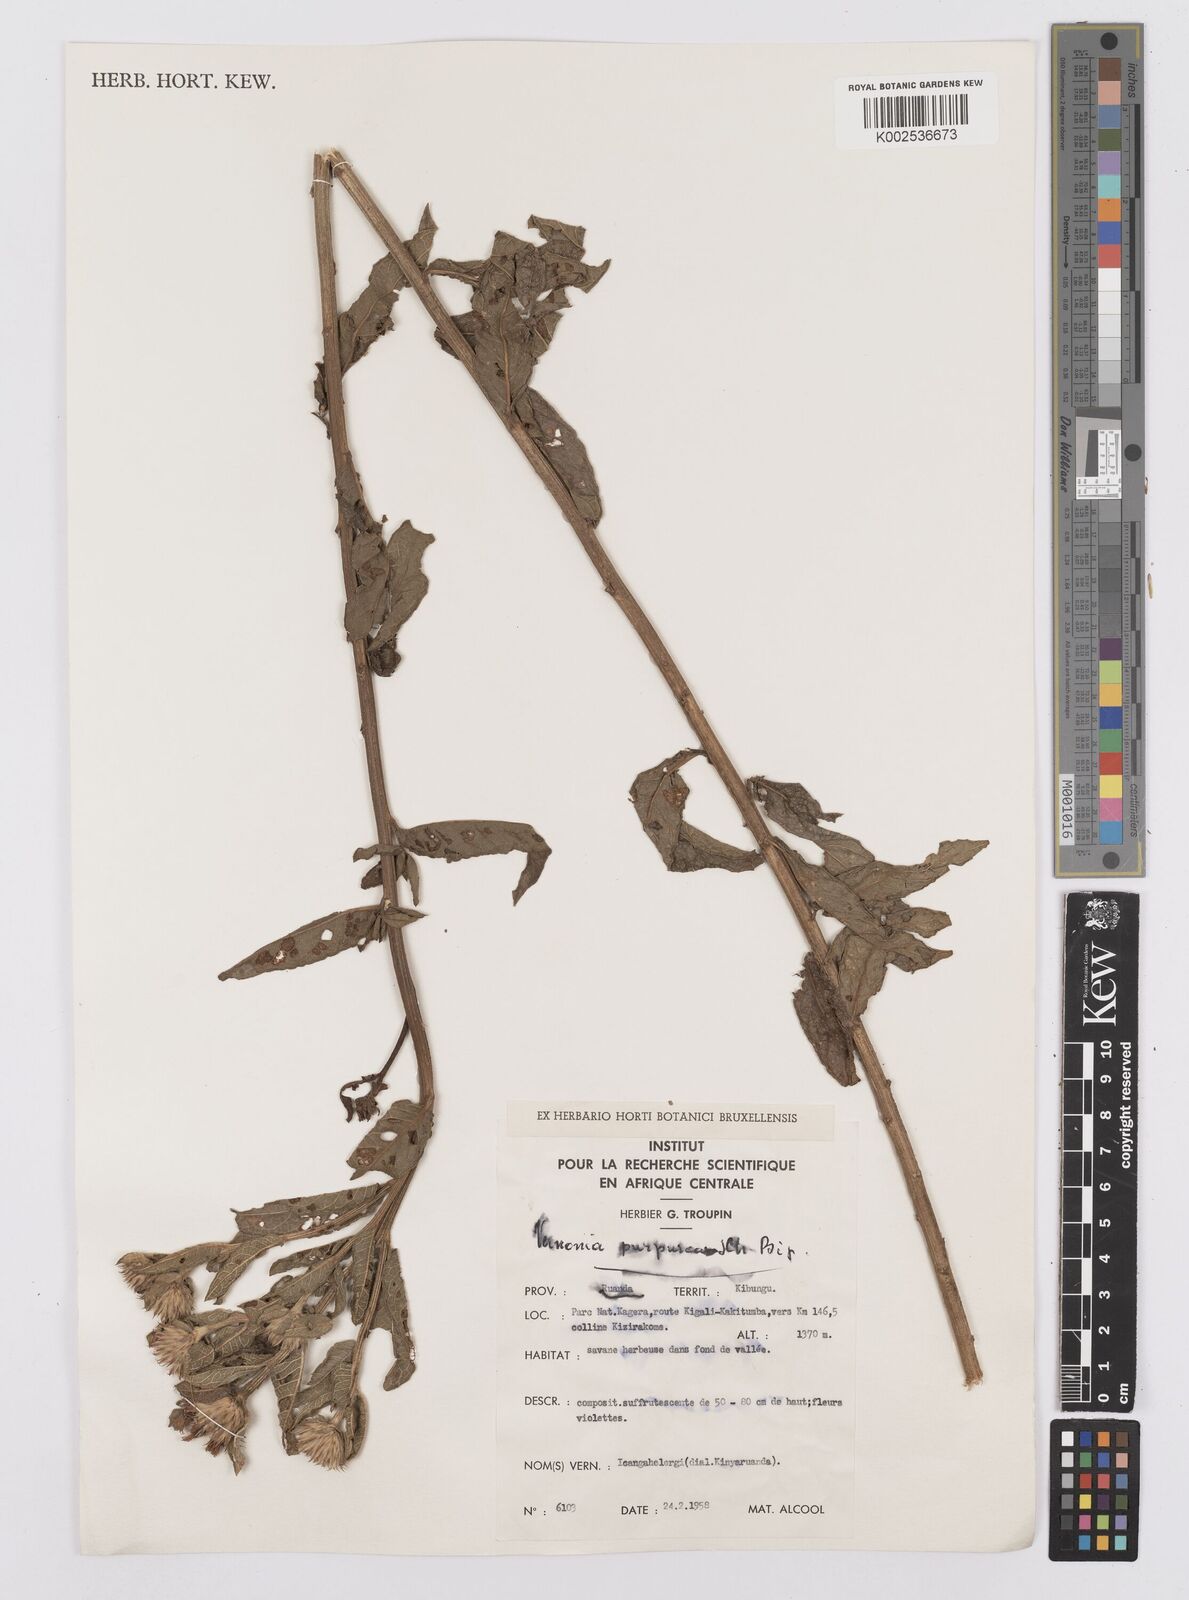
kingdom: Plantae
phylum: Tracheophyta
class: Magnoliopsida
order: Asterales
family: Asteraceae
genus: Nothovernonia
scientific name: Nothovernonia purpurea
